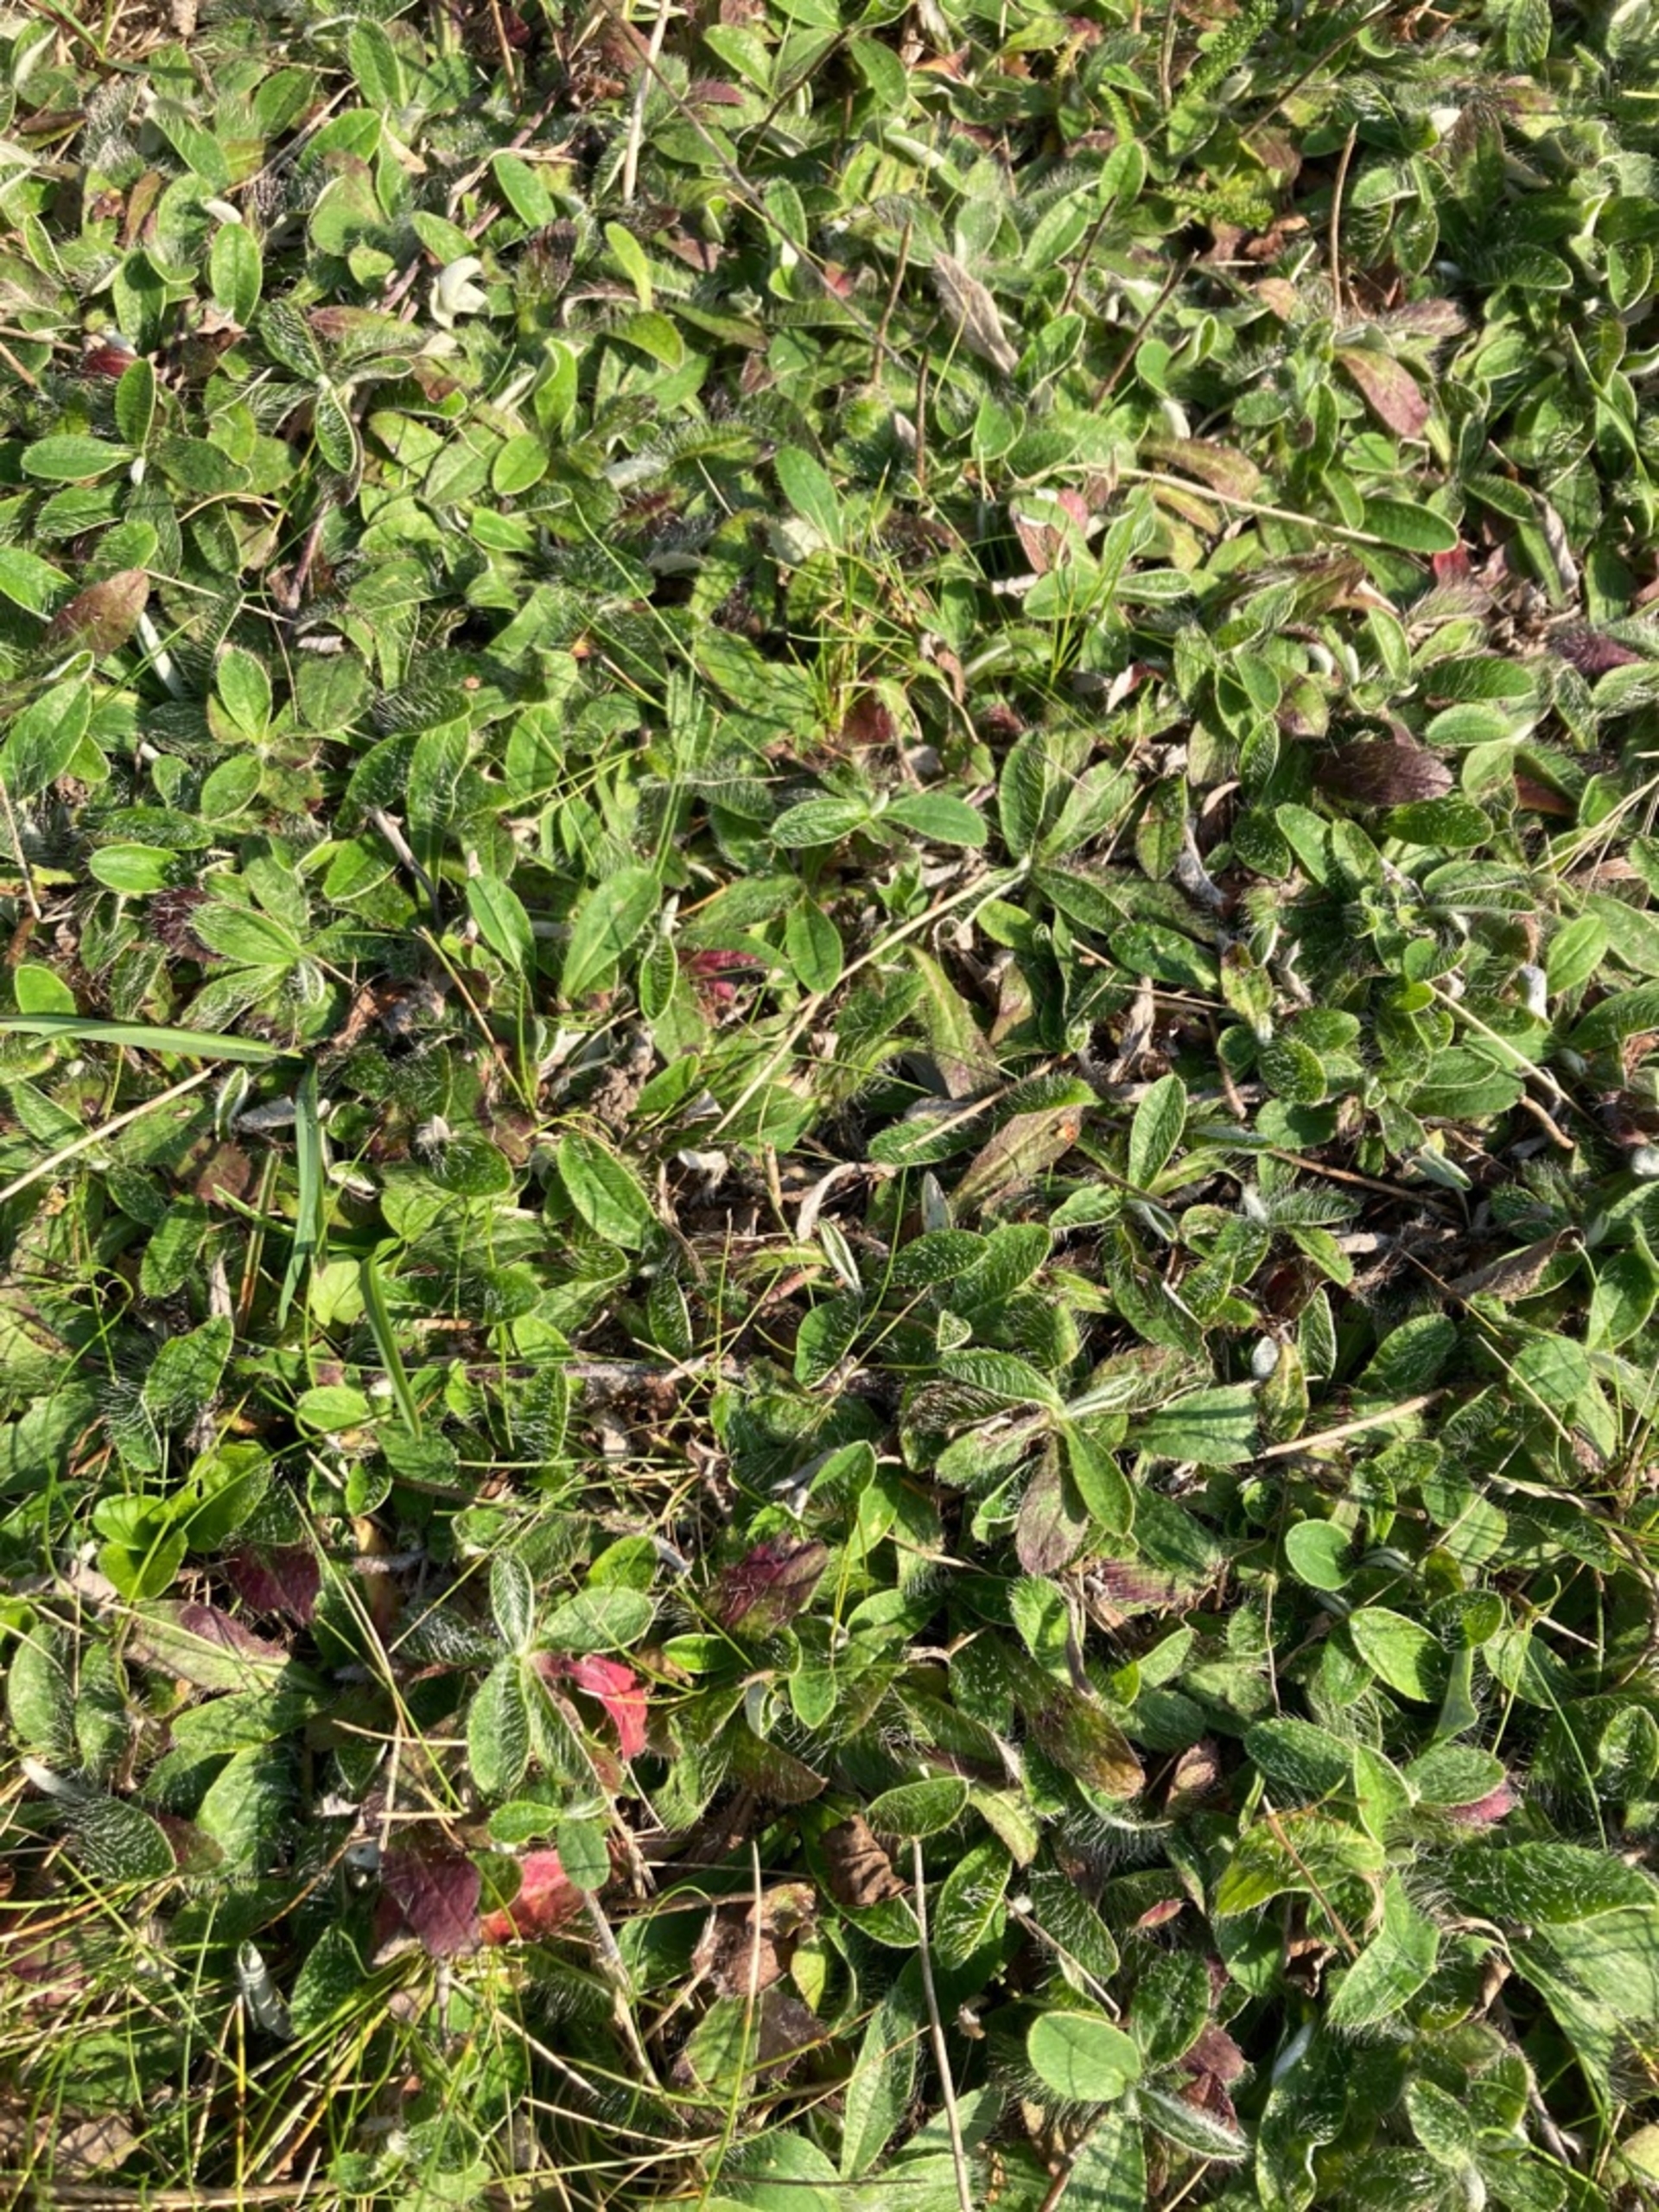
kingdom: Plantae
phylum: Tracheophyta
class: Magnoliopsida
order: Asterales
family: Asteraceae
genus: Pilosella
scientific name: Pilosella officinarum
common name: Håret høgeurt
